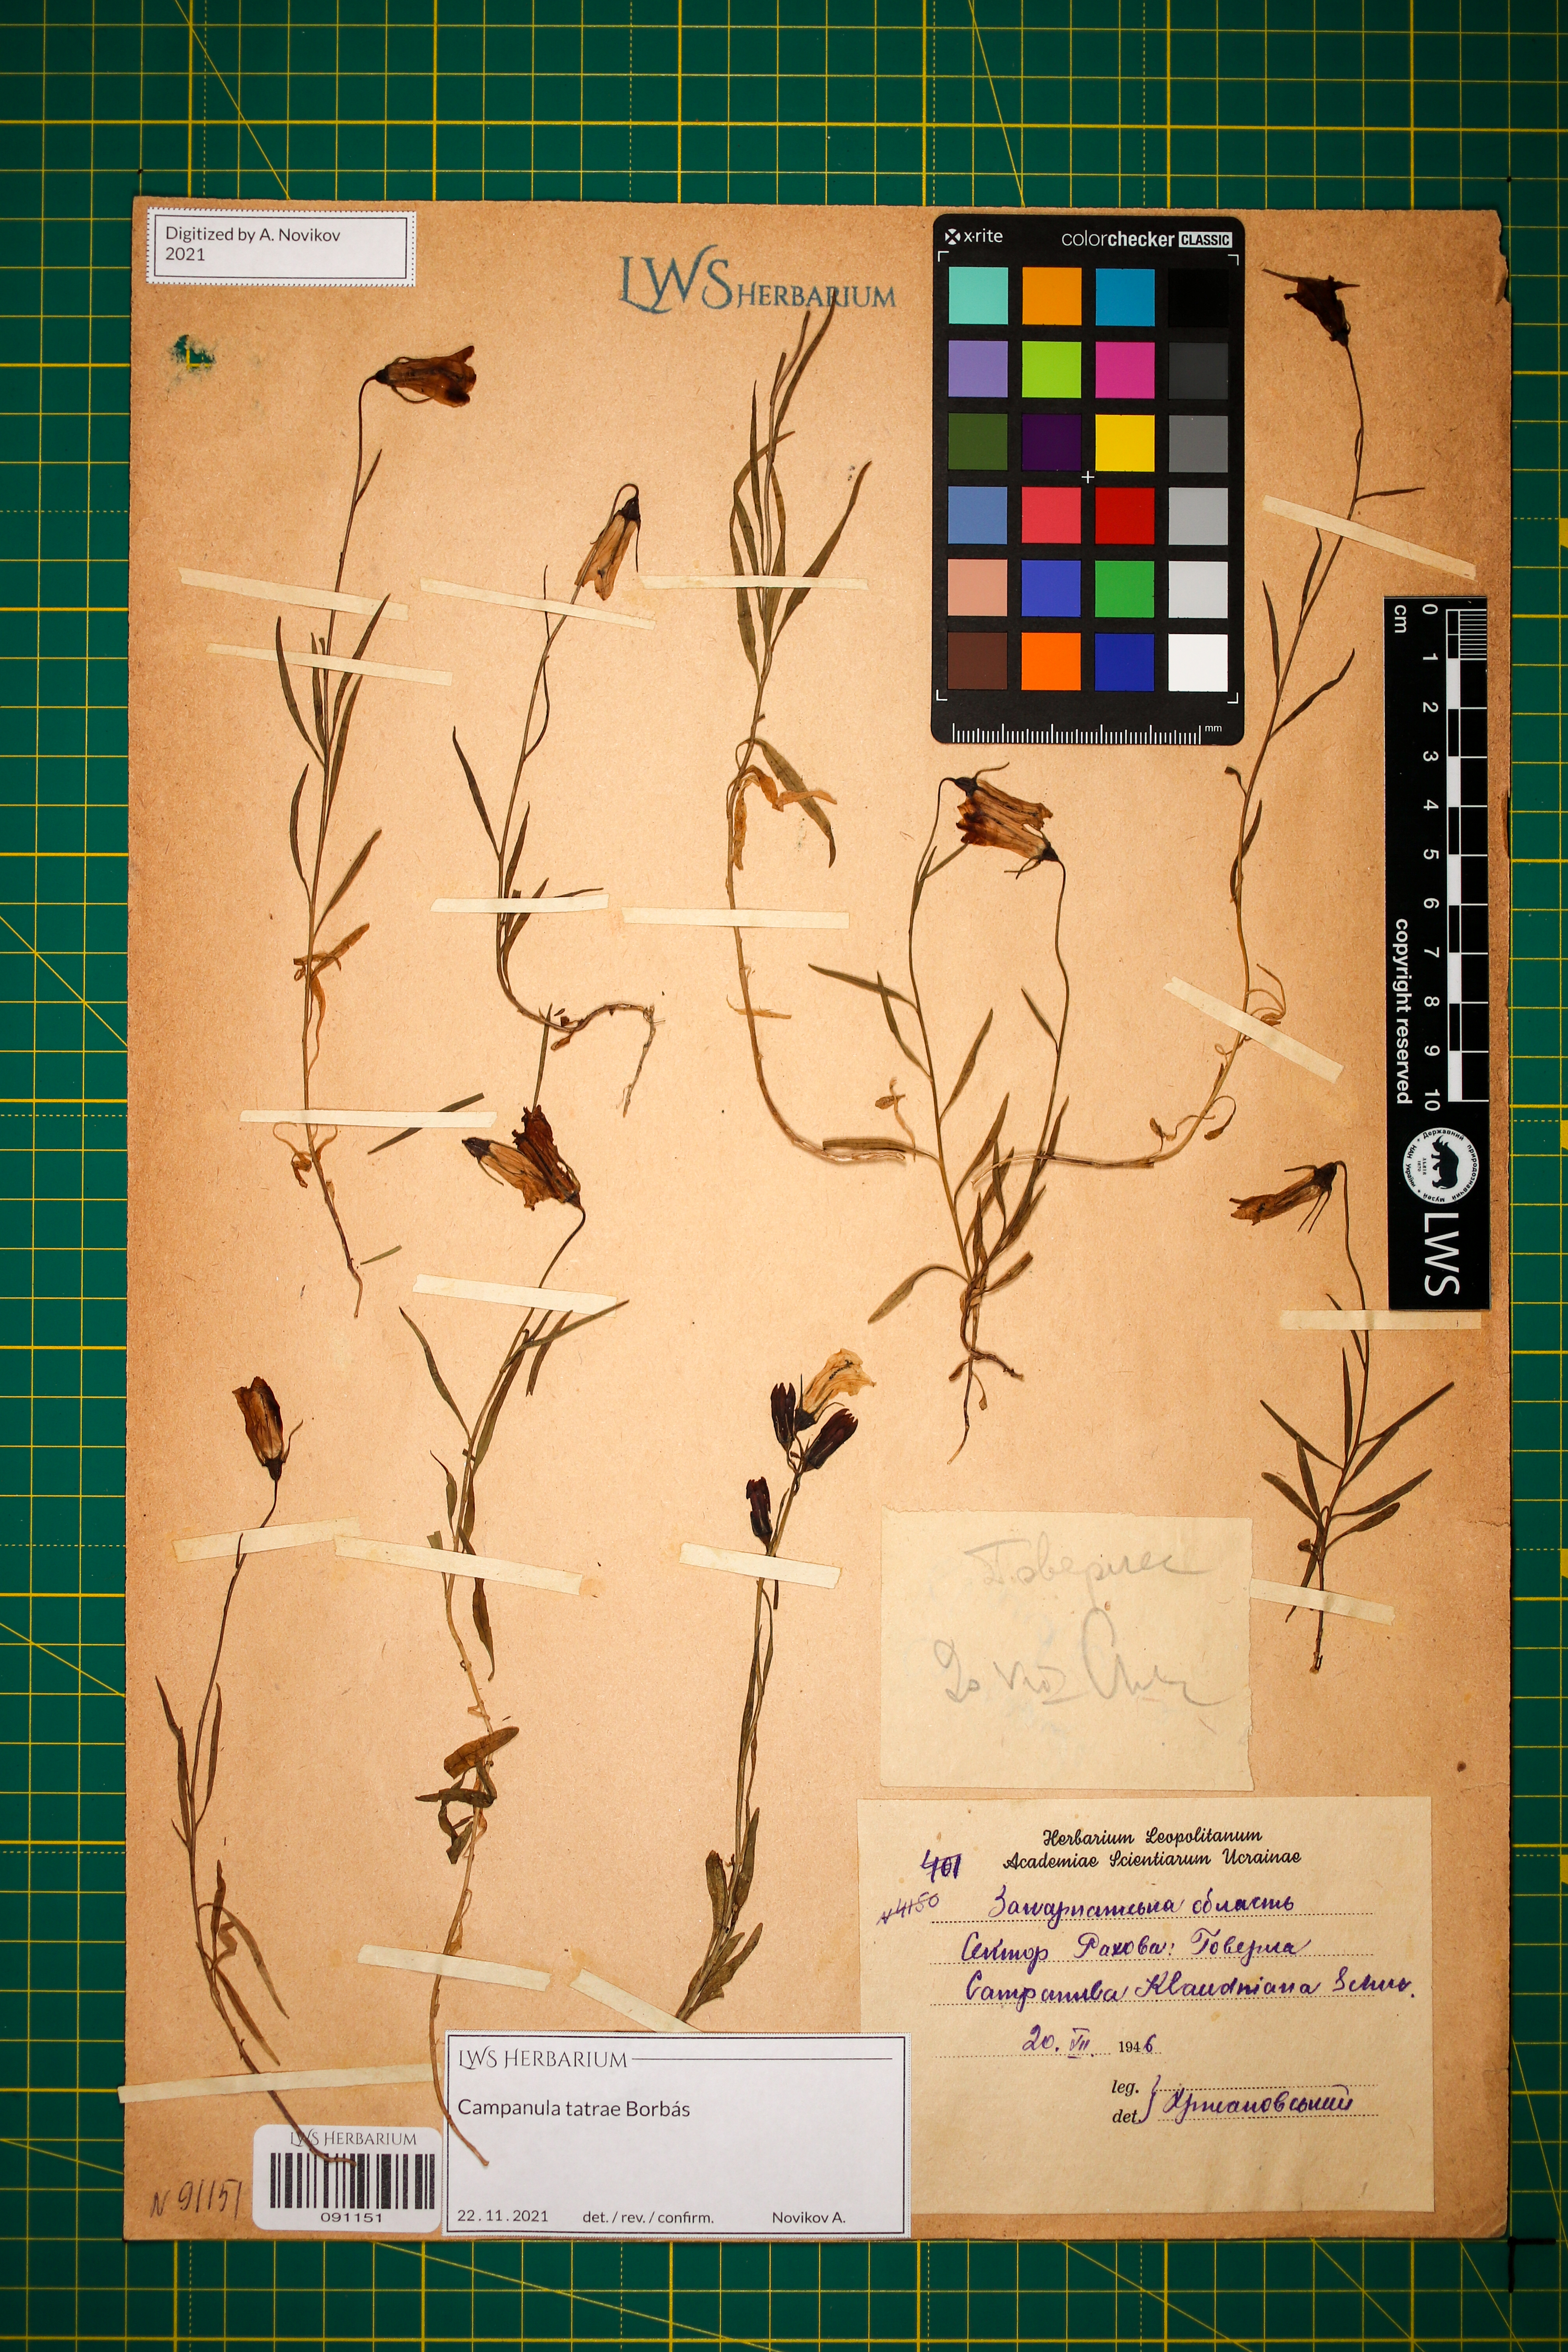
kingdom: Plantae
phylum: Tracheophyta
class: Magnoliopsida
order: Asterales
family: Campanulaceae
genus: Campanula
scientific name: Campanula kladniana
